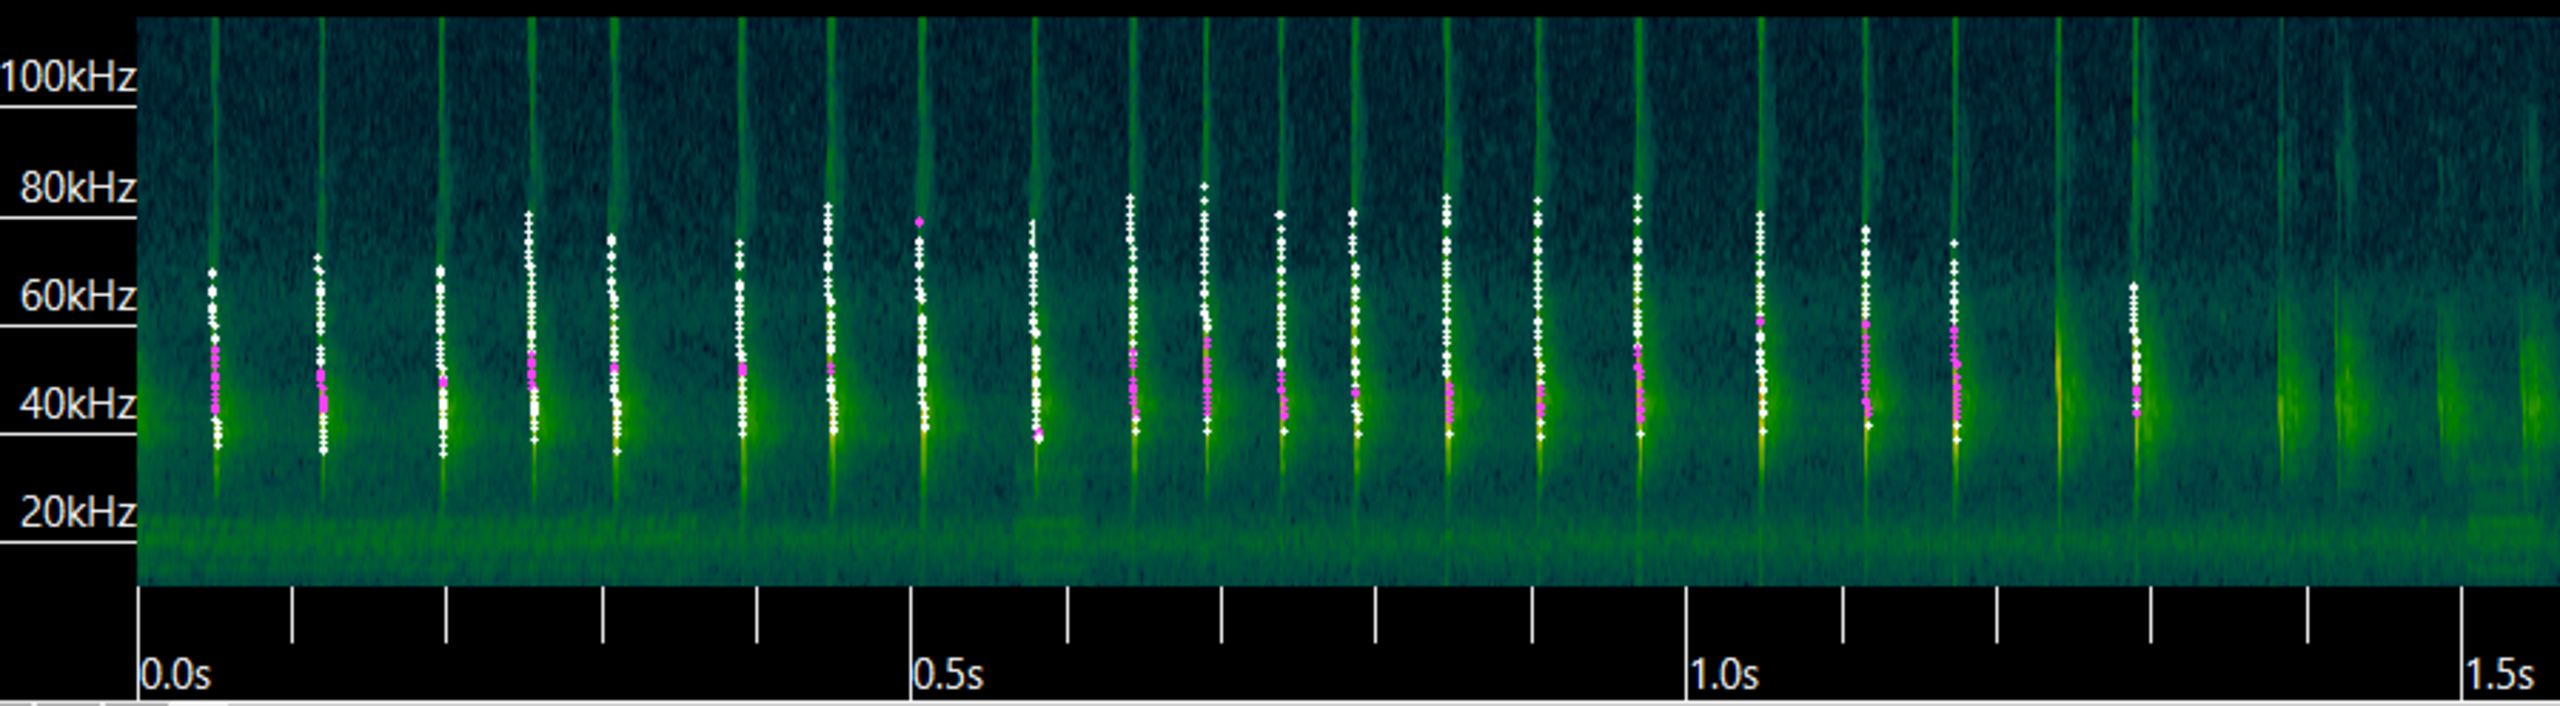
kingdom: Animalia
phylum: Chordata
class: Mammalia
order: Chiroptera
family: Vespertilionidae
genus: Myotis
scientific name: Myotis daubentonii
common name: Vandflagermus
